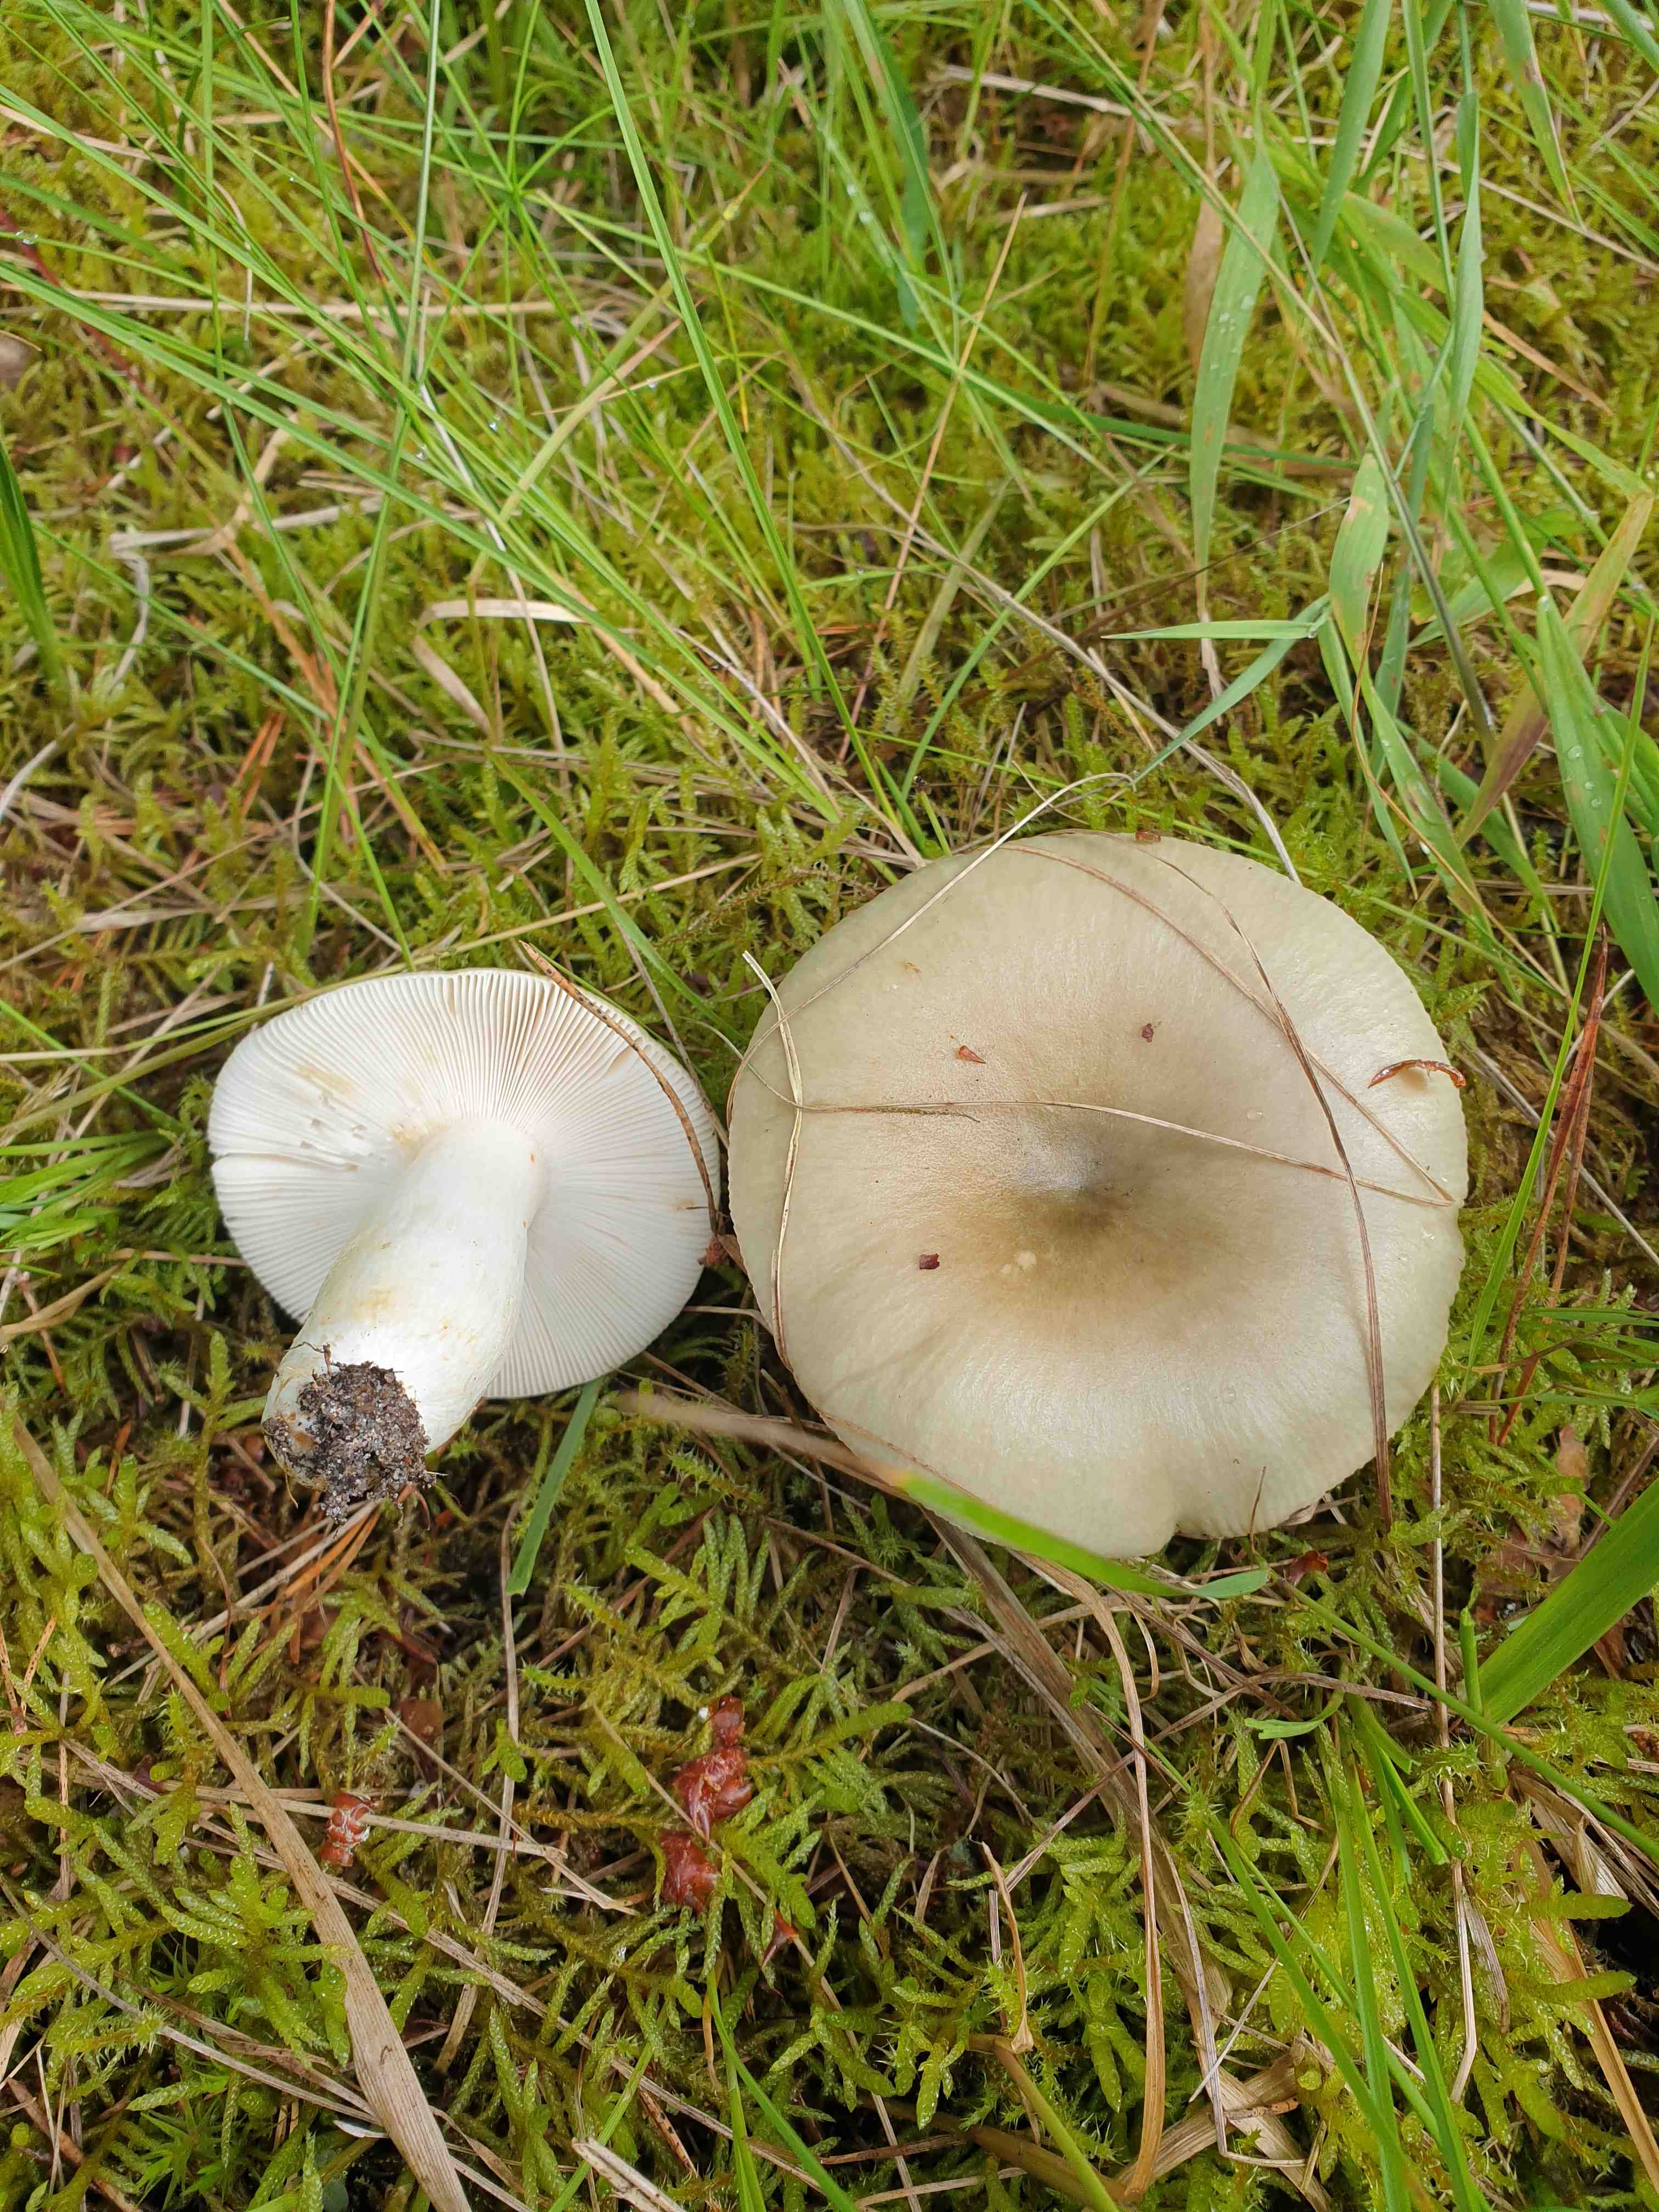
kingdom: Fungi
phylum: Basidiomycota
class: Agaricomycetes
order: Russulales
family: Russulaceae
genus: Russula
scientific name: Russula aeruginea
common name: græsgrøn skørhat
